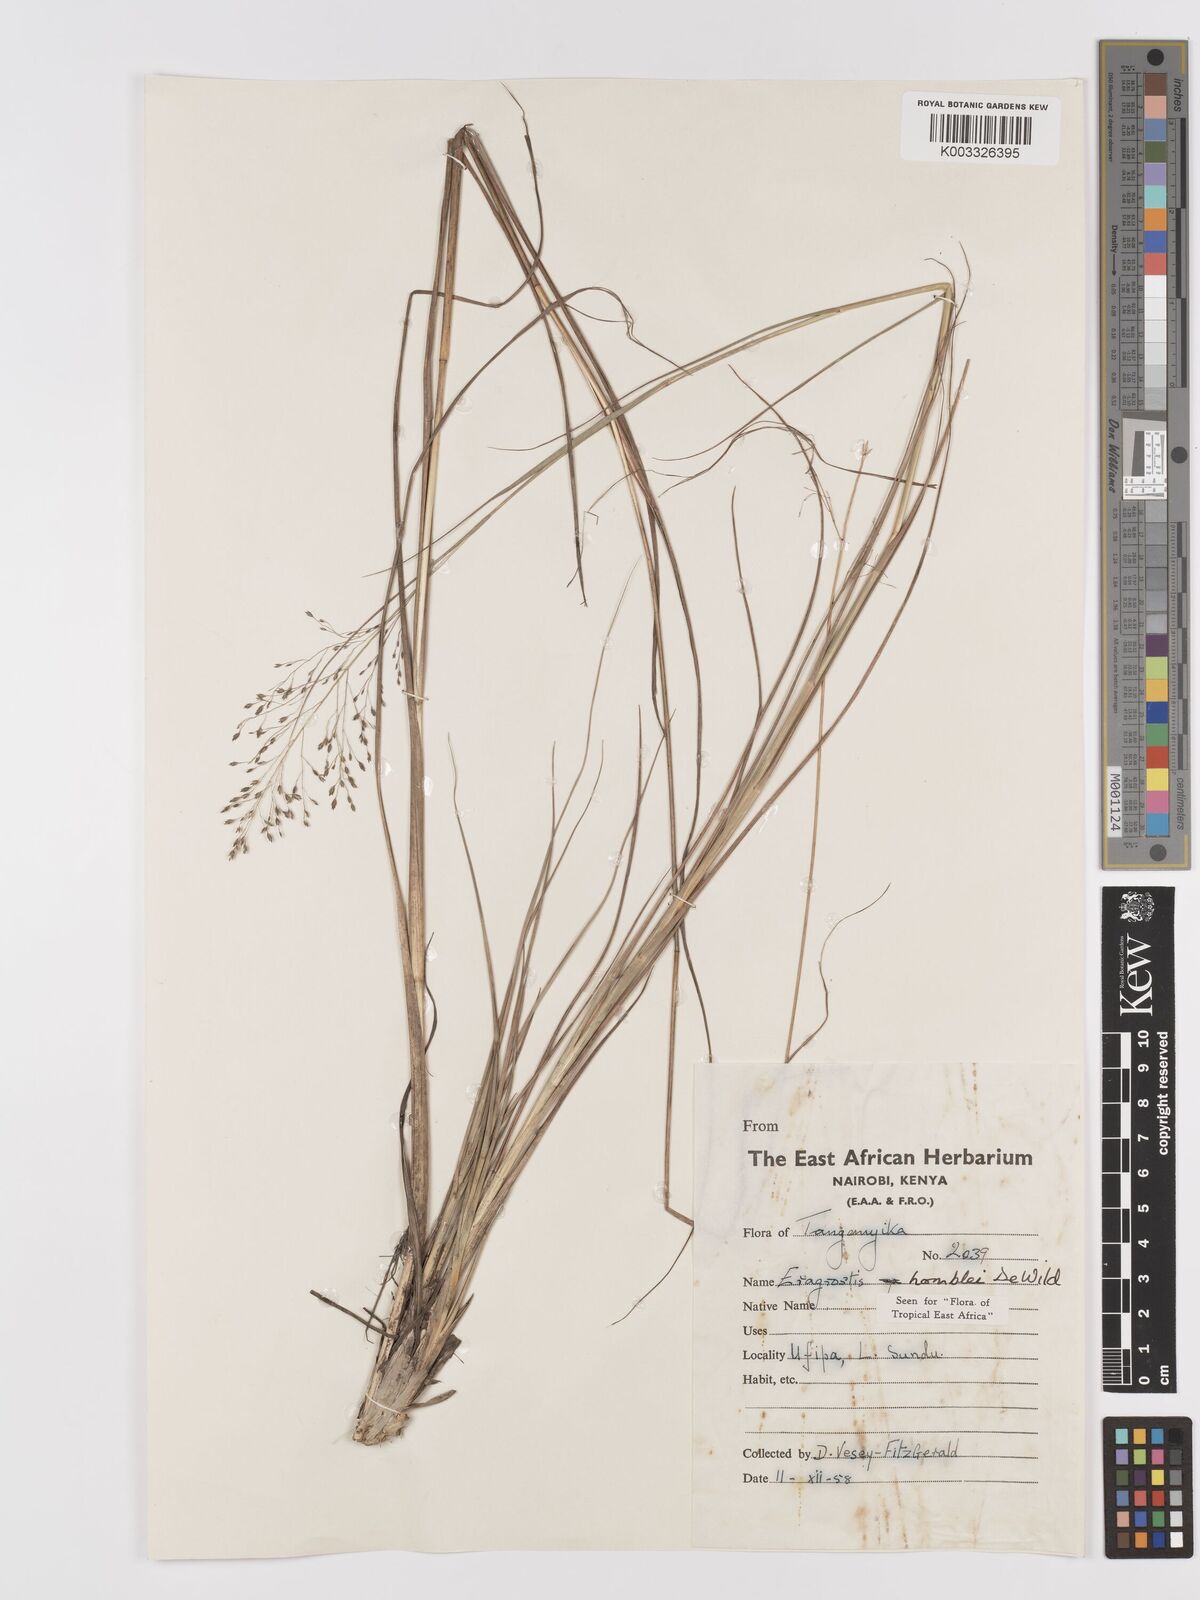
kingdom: Plantae
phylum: Tracheophyta
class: Liliopsida
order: Poales
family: Poaceae
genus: Eragrostis
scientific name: Eragrostis homblei
